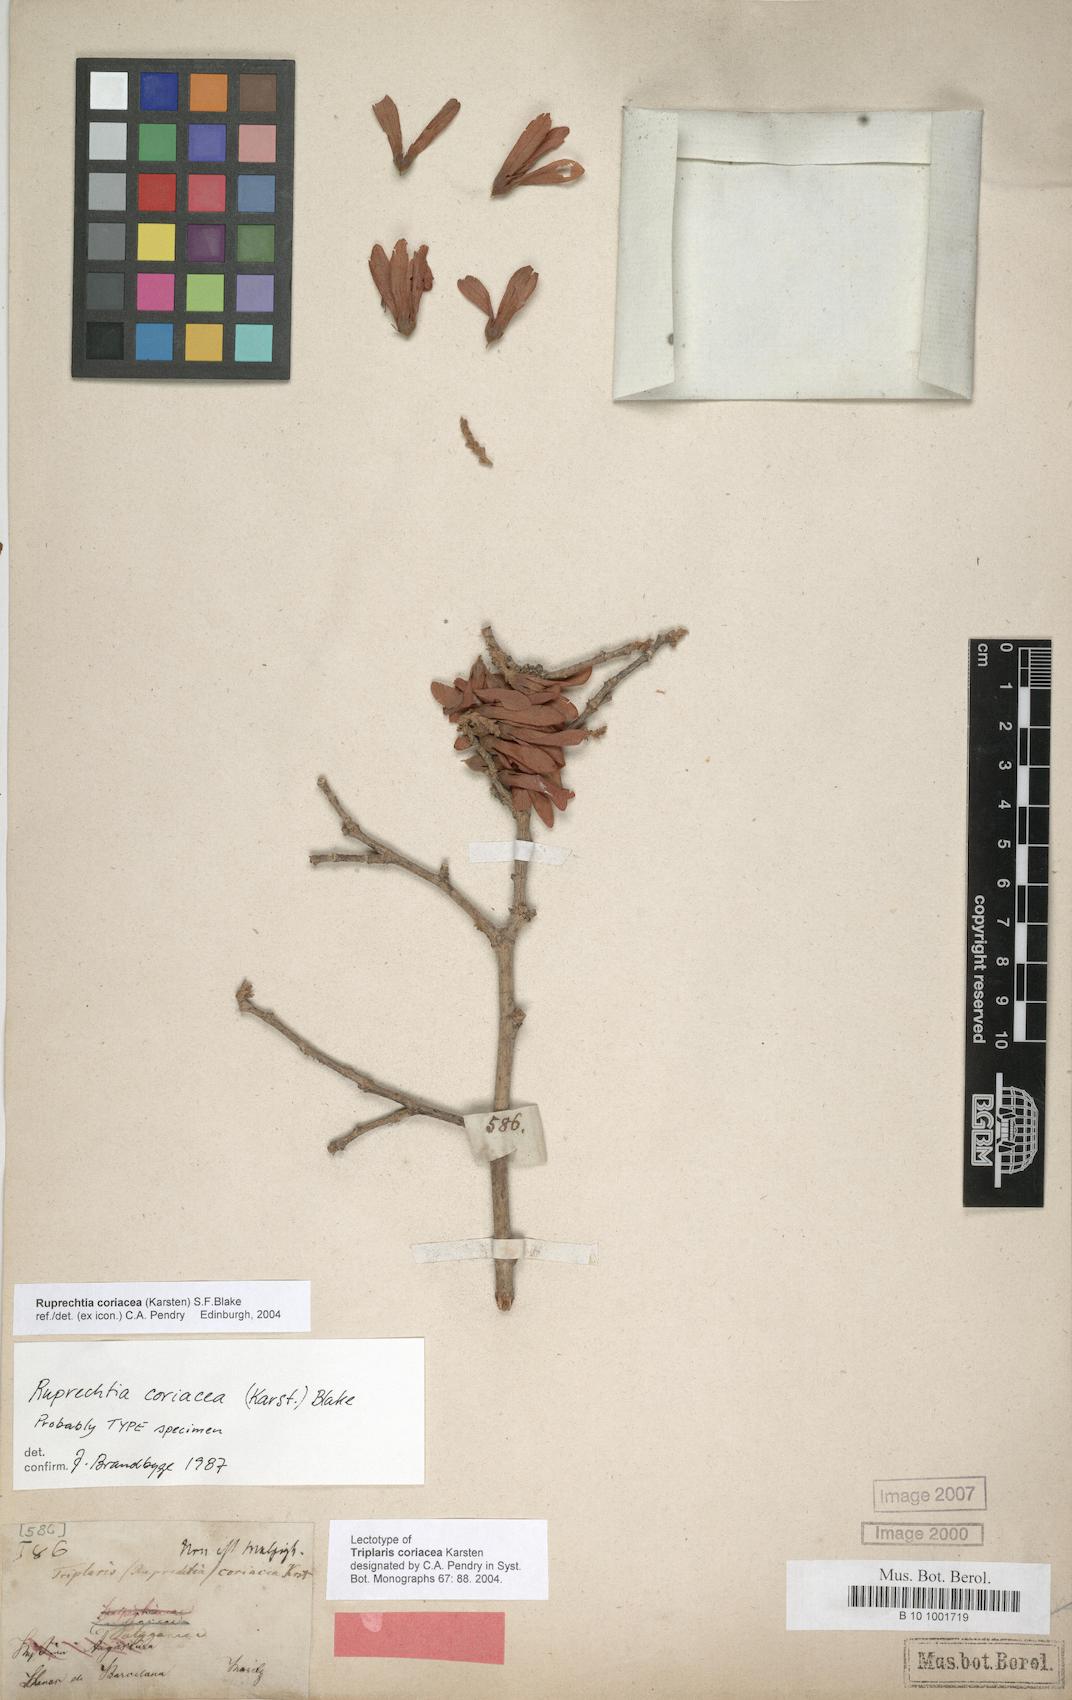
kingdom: Plantae
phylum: Tracheophyta
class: Magnoliopsida
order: Caryophyllales
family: Polygonaceae
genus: Ruprechtia
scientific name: Ruprechtia coriacea
